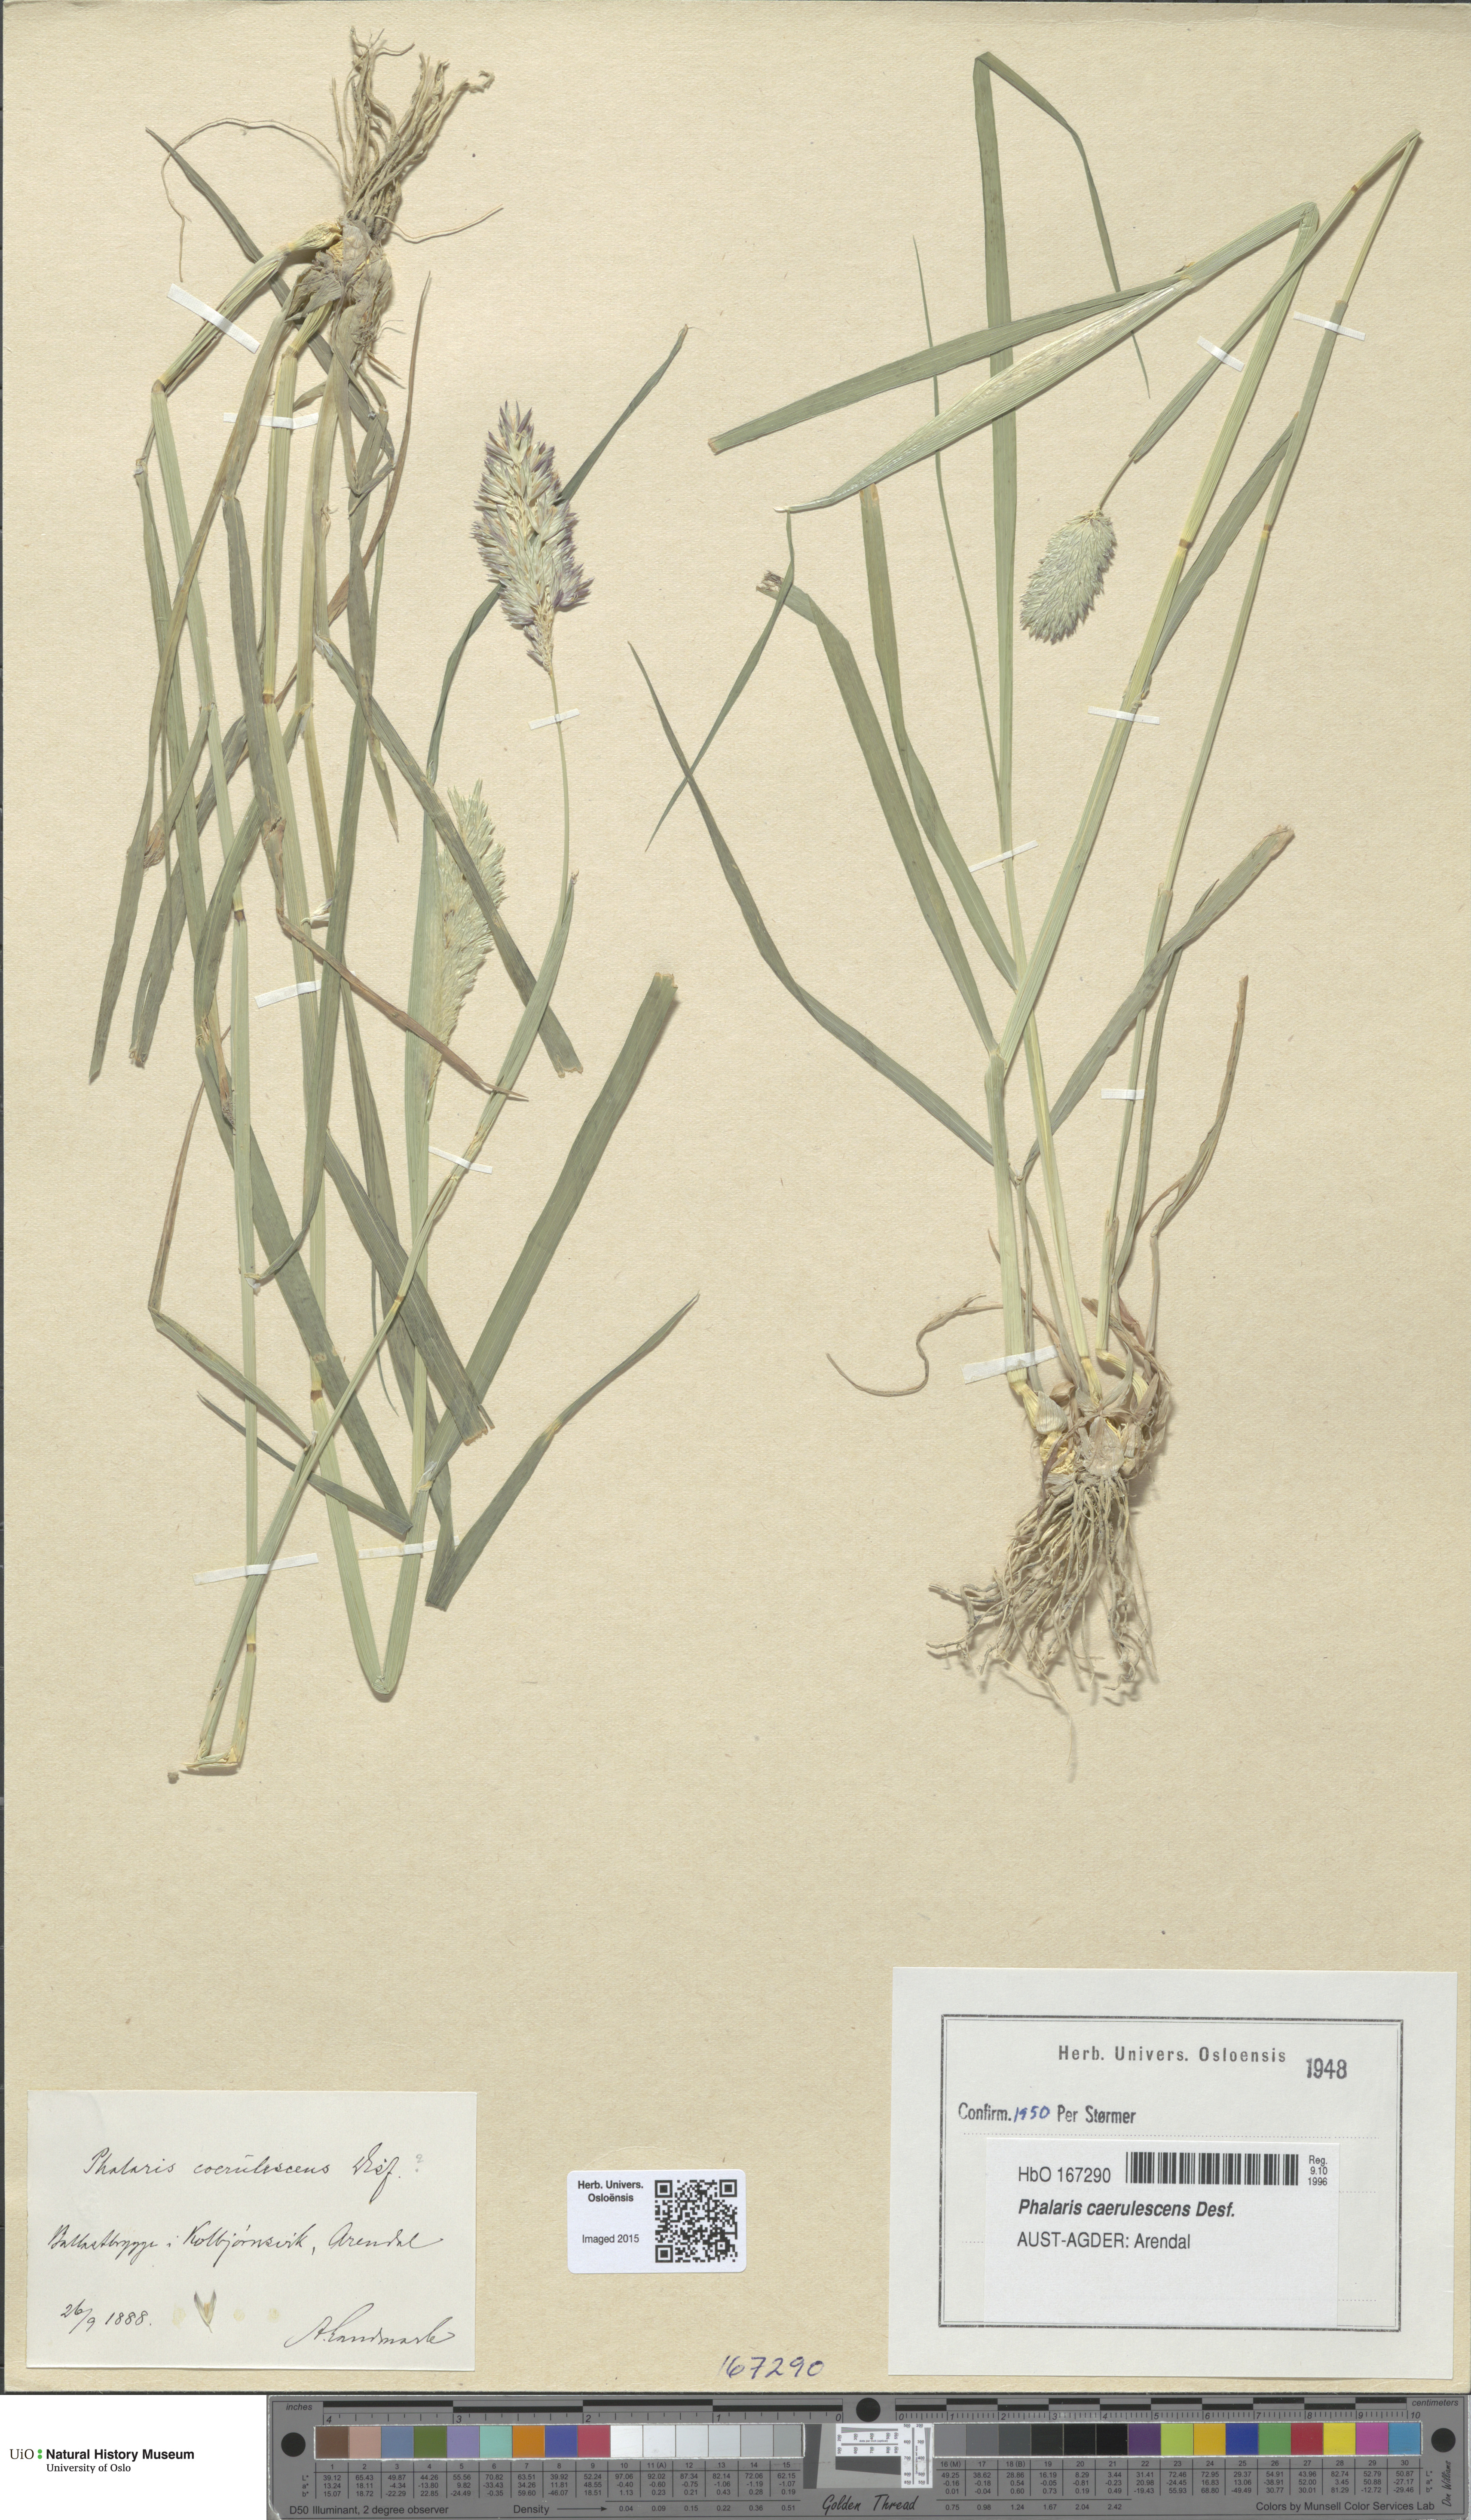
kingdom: Plantae
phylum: Tracheophyta
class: Liliopsida
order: Poales
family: Poaceae
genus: Phalaris
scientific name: Phalaris coerulescens
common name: Sunolgrass
